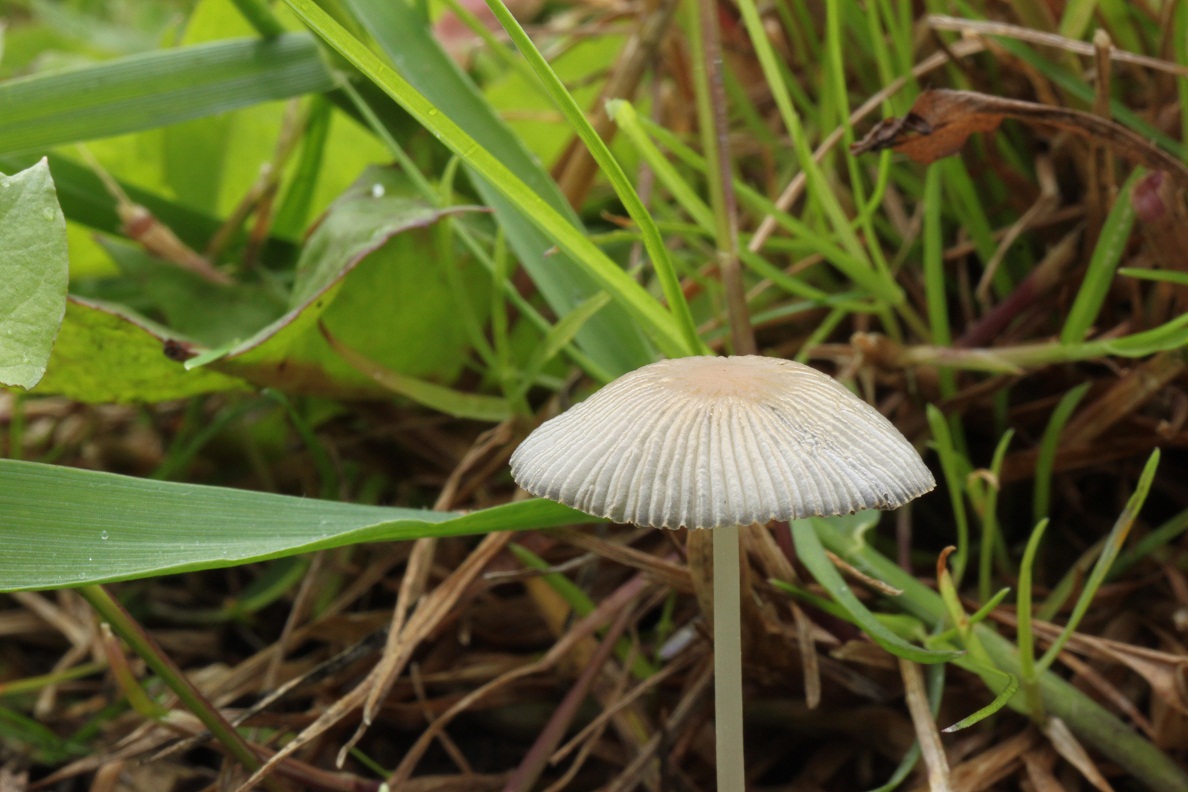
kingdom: Fungi
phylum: Basidiomycota
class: Agaricomycetes
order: Agaricales
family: Psathyrellaceae
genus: Parasola
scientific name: Parasola lactea
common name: glat hjulhat
